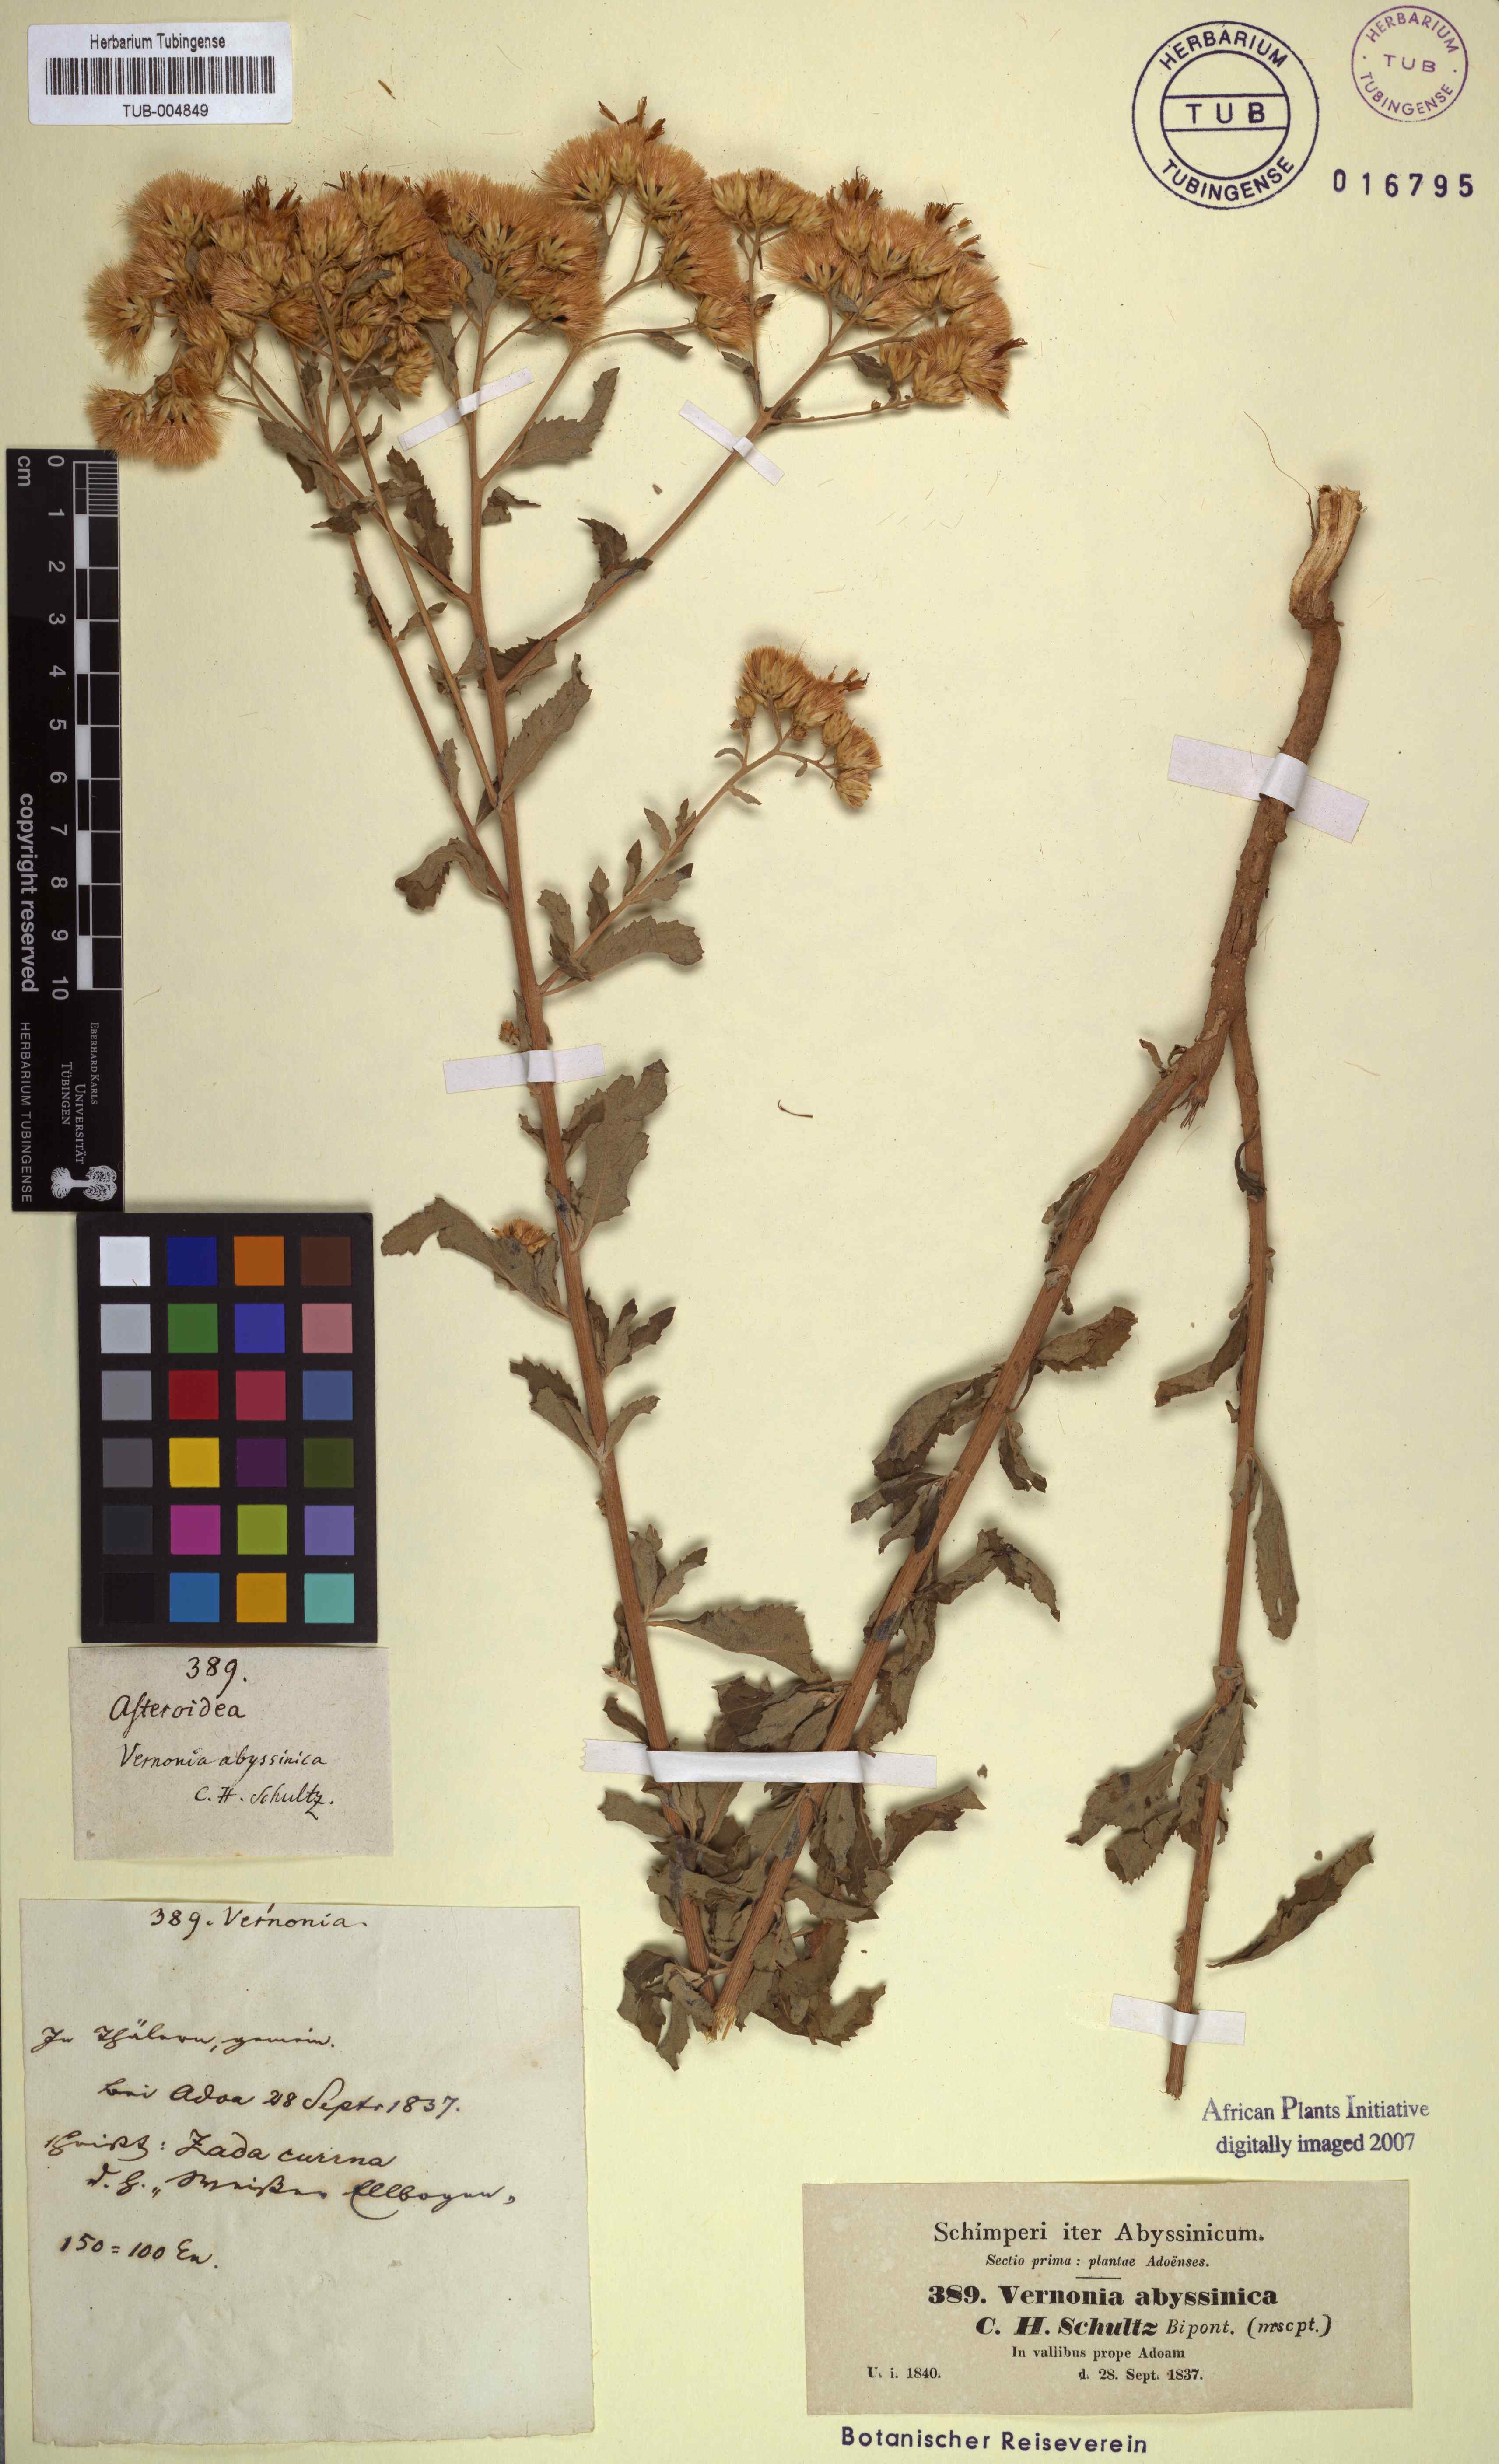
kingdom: Plantae
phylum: Tracheophyta
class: Magnoliopsida
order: Asterales
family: Asteraceae
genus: Baccharoides
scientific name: Baccharoides schimperi
